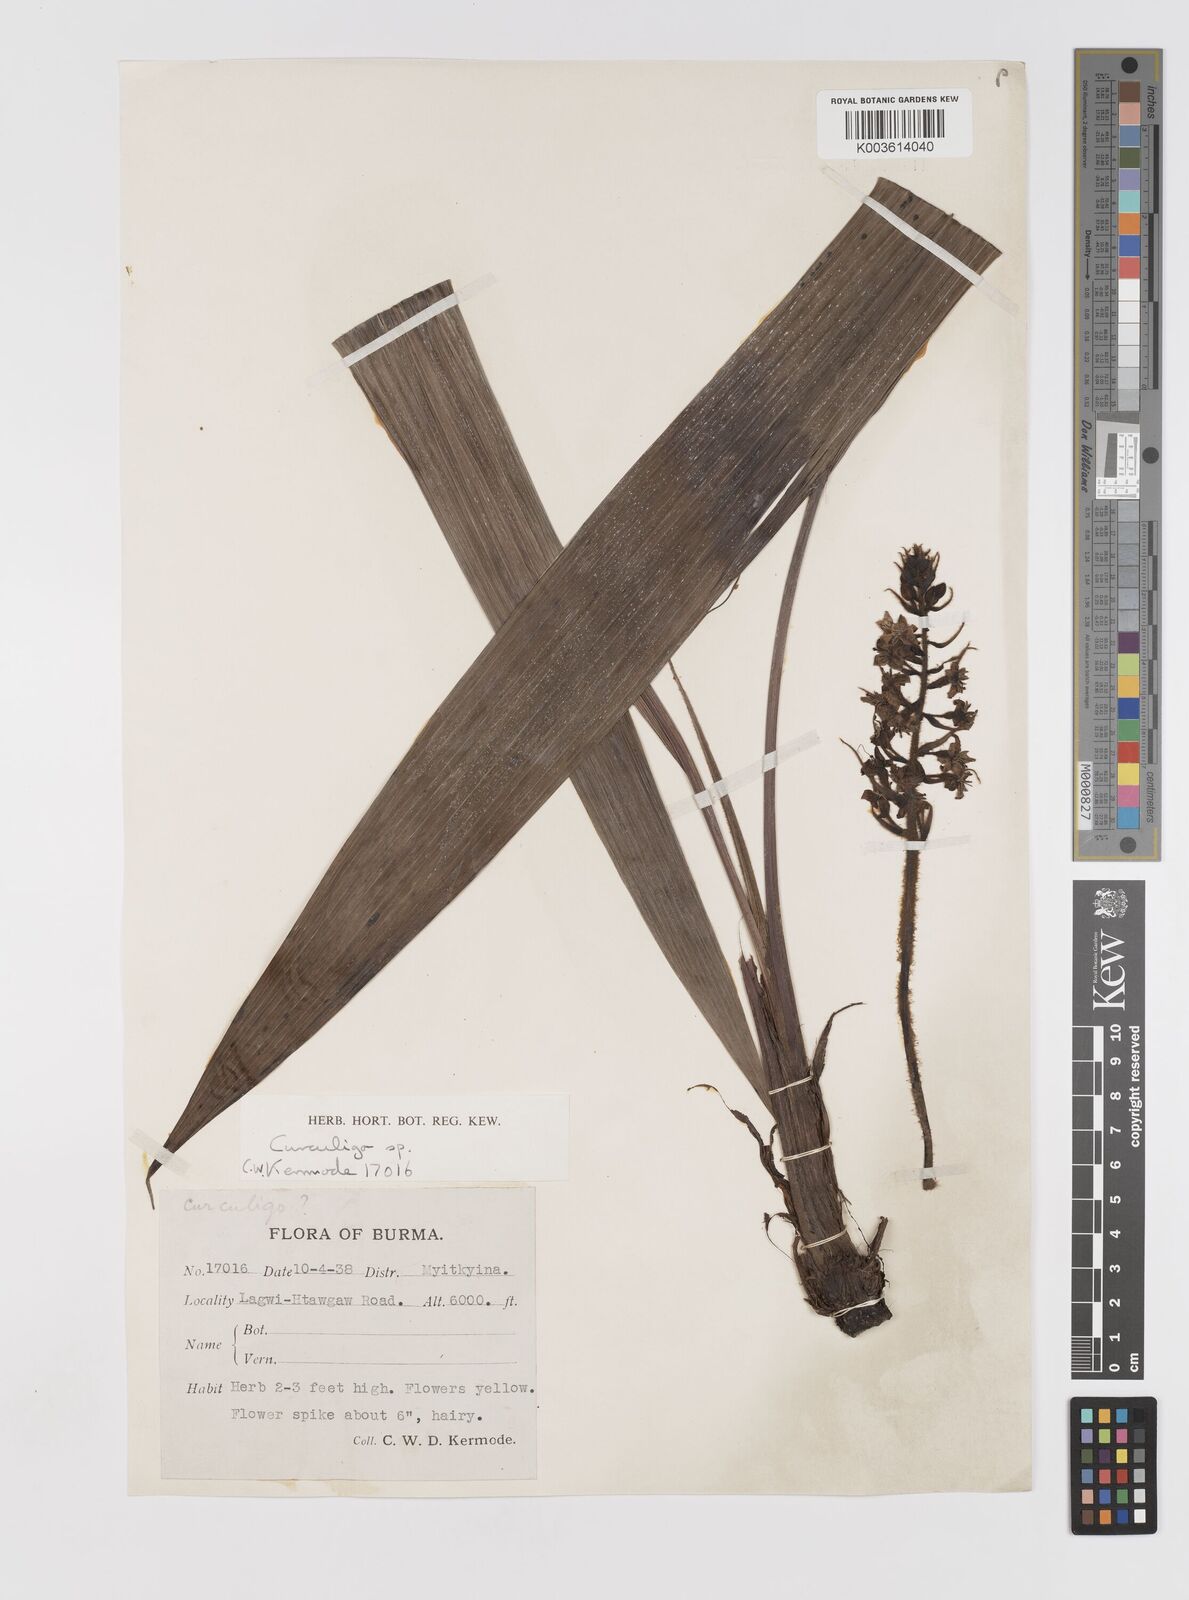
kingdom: Plantae
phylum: Tracheophyta
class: Liliopsida
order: Asparagales
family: Hypoxidaceae
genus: Curculigo
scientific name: Curculigo
